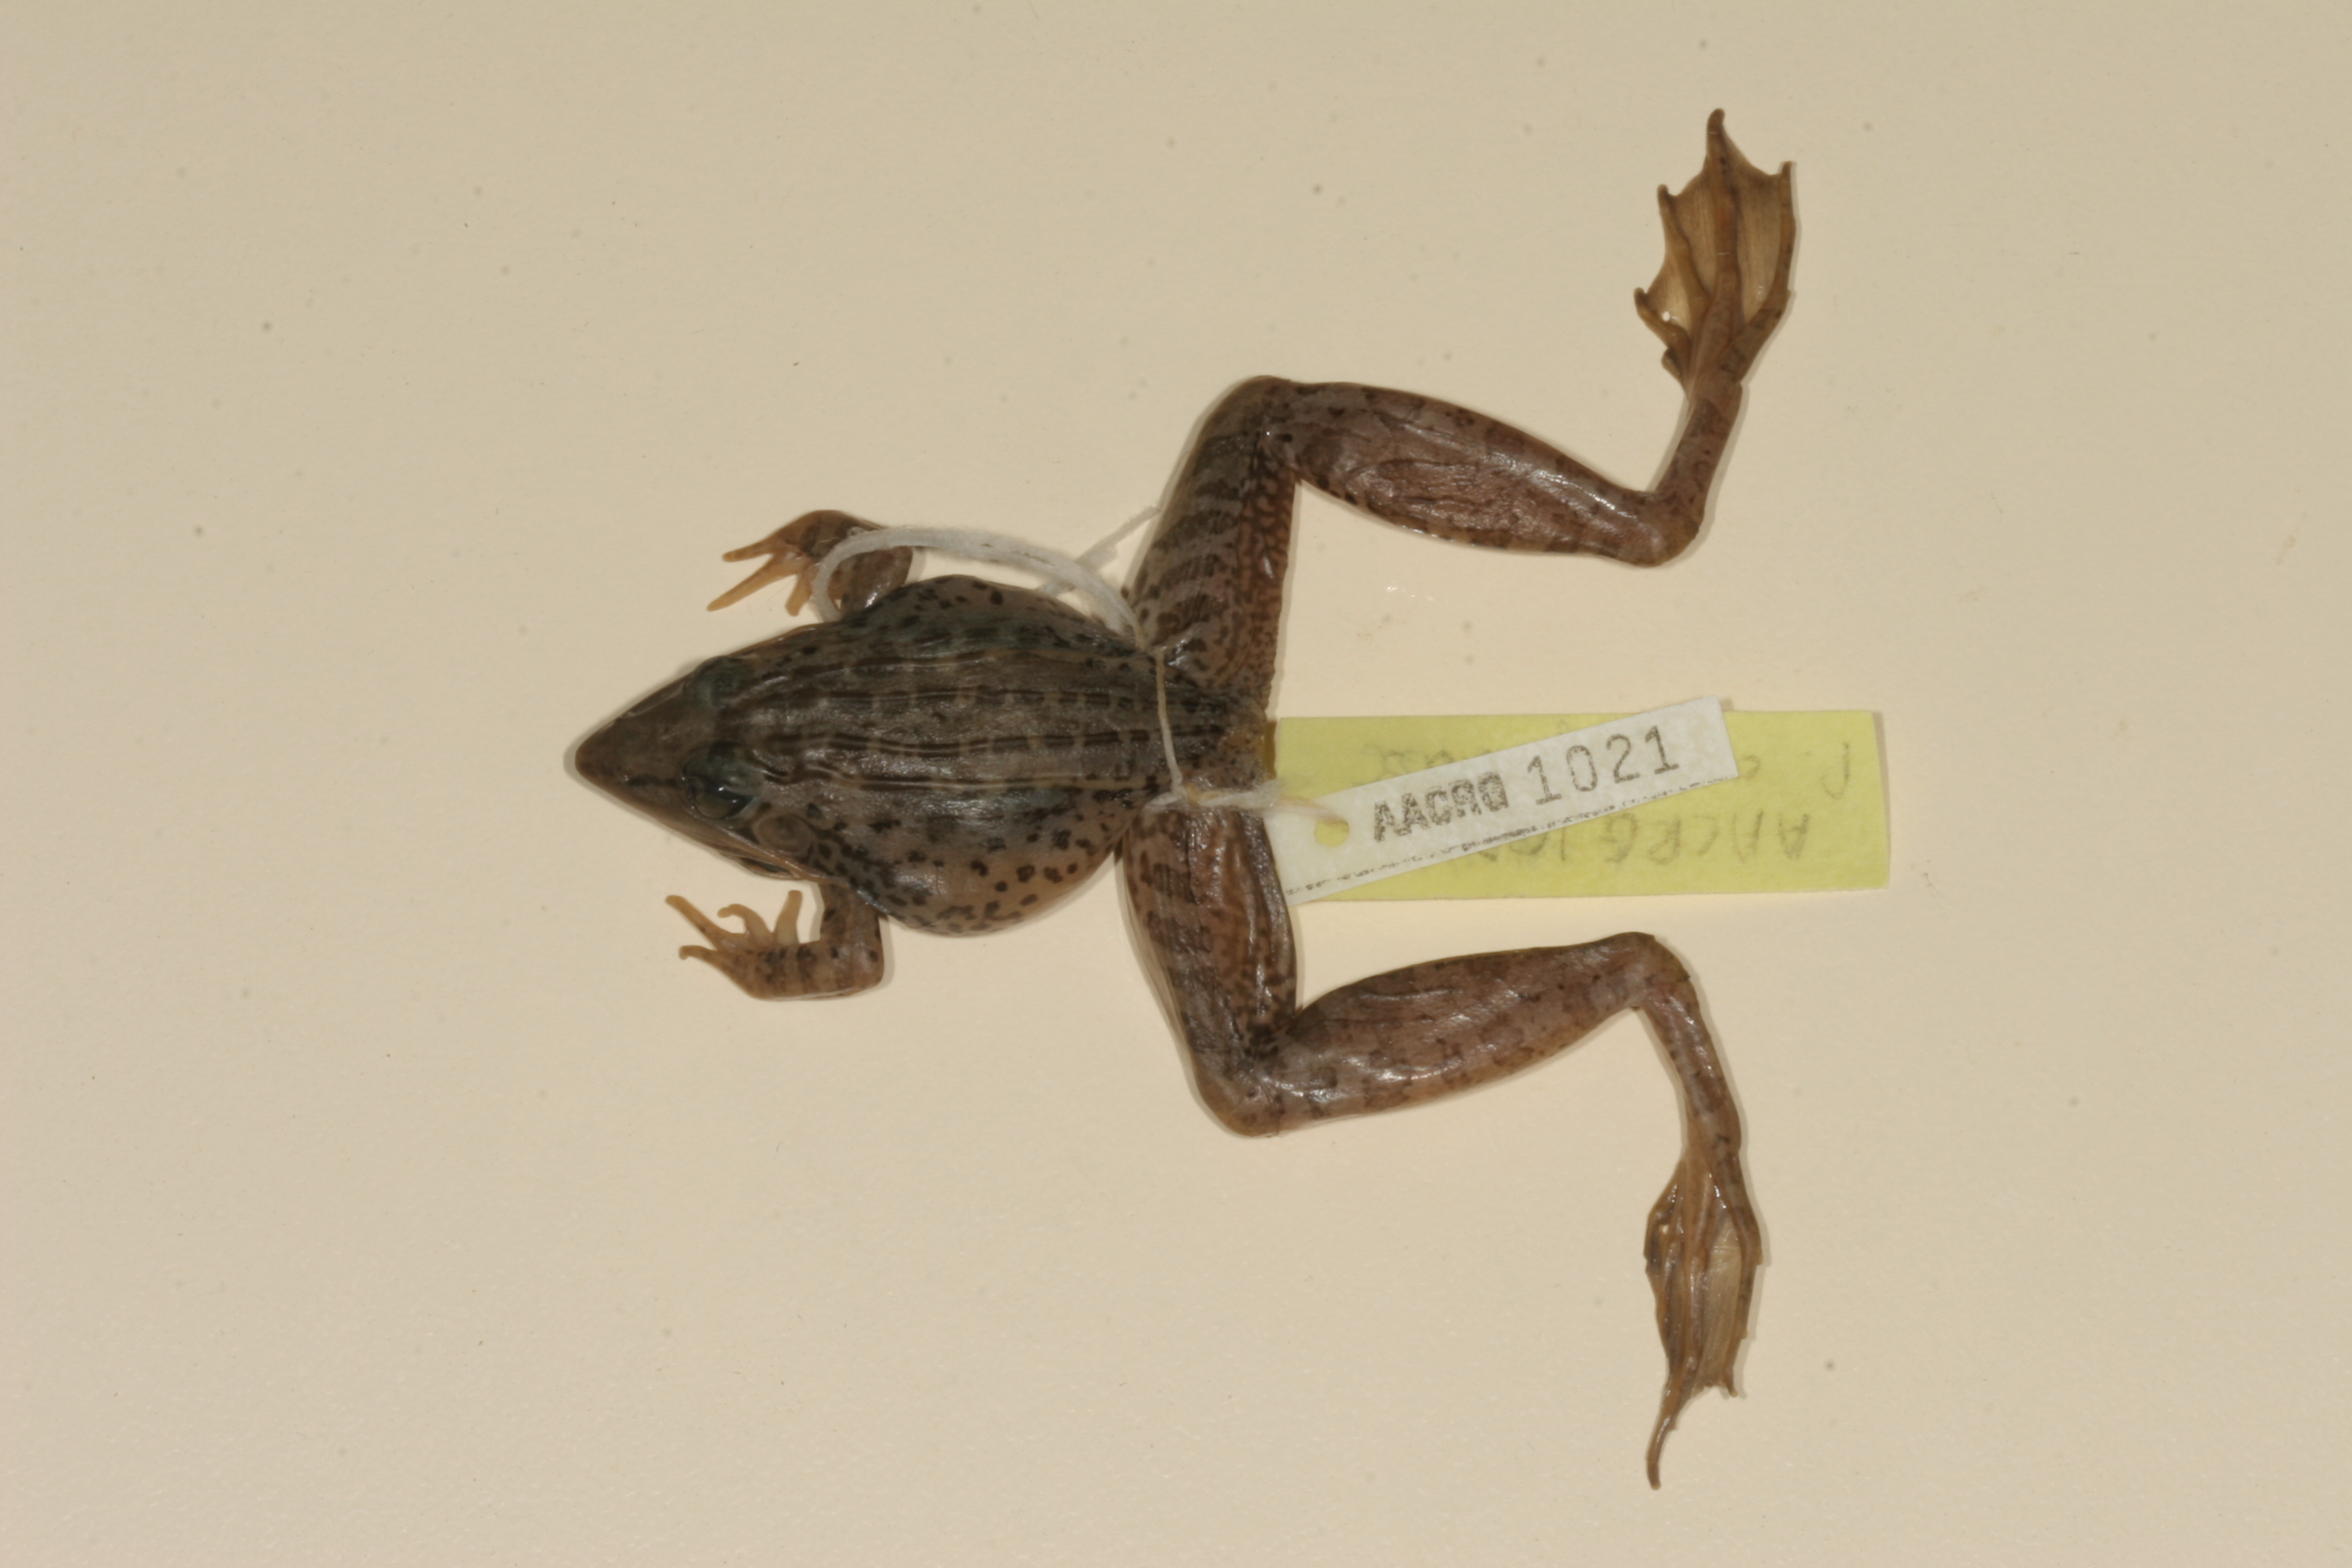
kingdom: Animalia
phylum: Chordata
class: Amphibia
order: Anura
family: Ptychadenidae
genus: Ptychadena
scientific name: Ptychadena oxyrhynchus
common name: Sharp-nosed ridged frog
